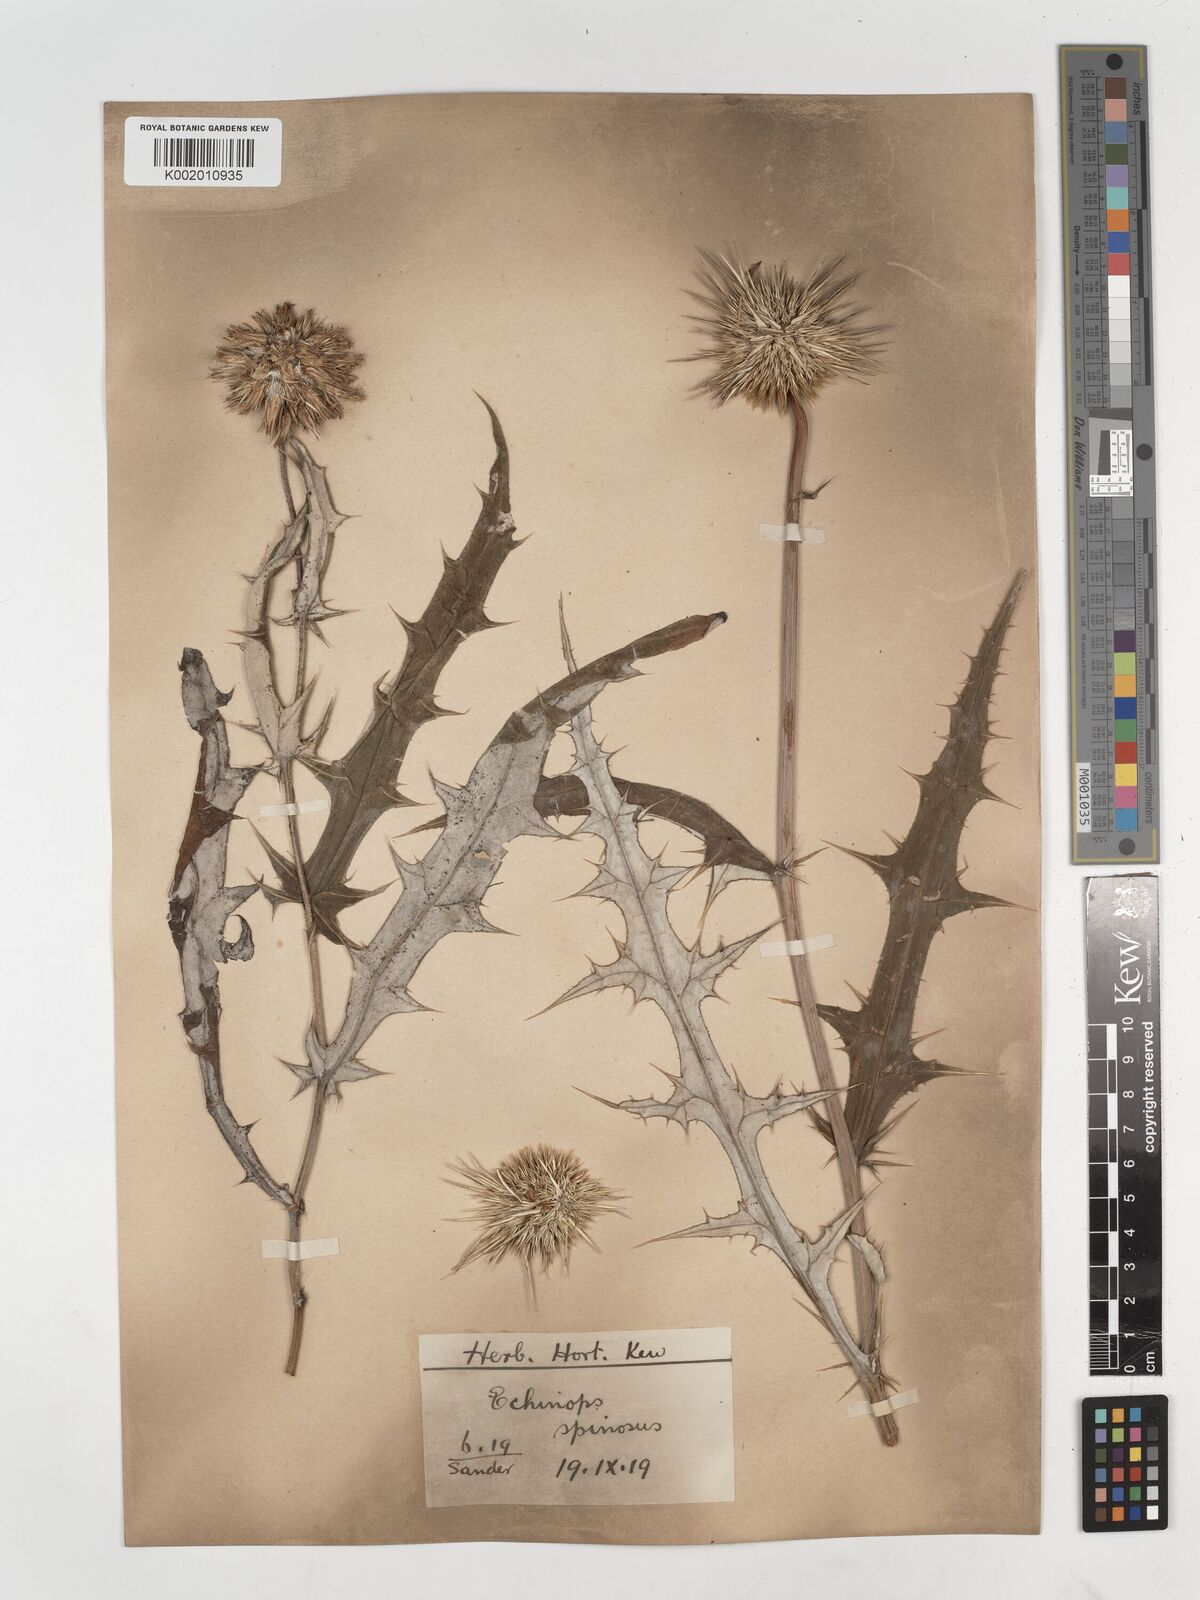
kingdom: Plantae
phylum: Tracheophyta
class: Magnoliopsida
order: Asterales
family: Asteraceae
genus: Echinops
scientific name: Echinops spinosissimus
